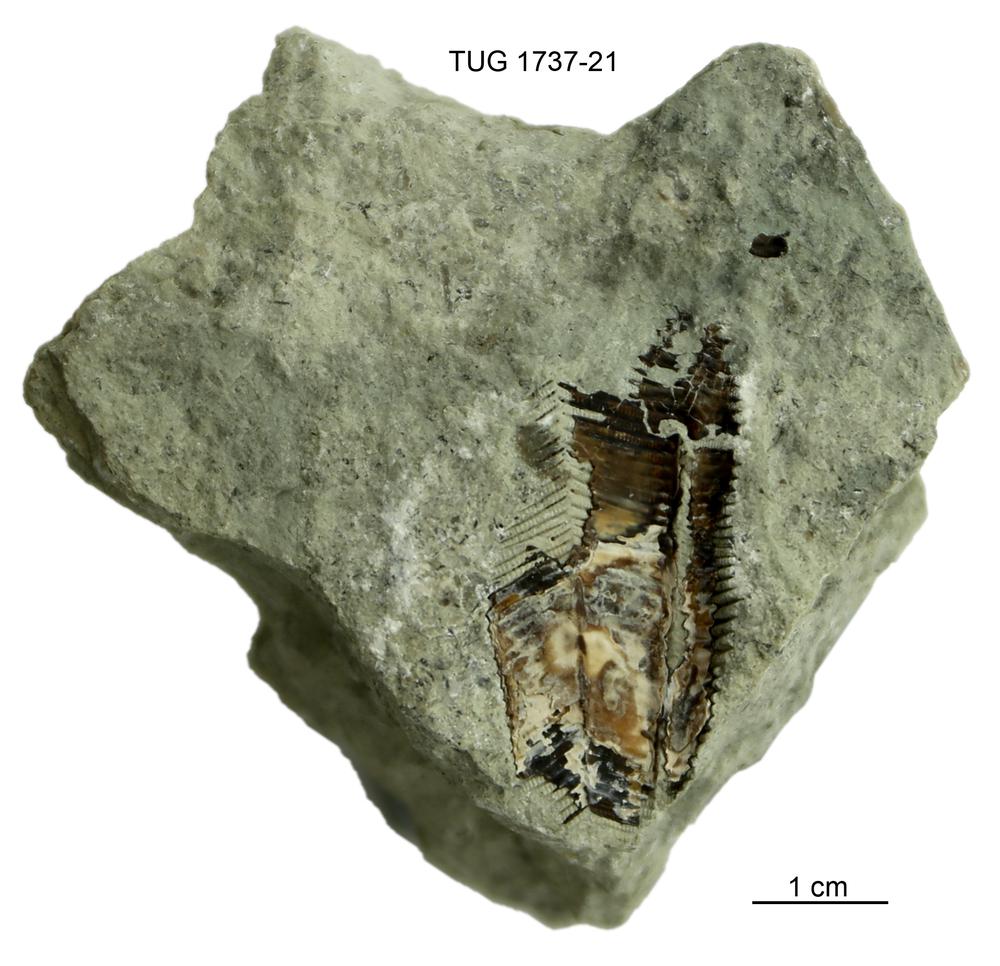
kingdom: Animalia
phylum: Cnidaria
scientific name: Cnidaria
